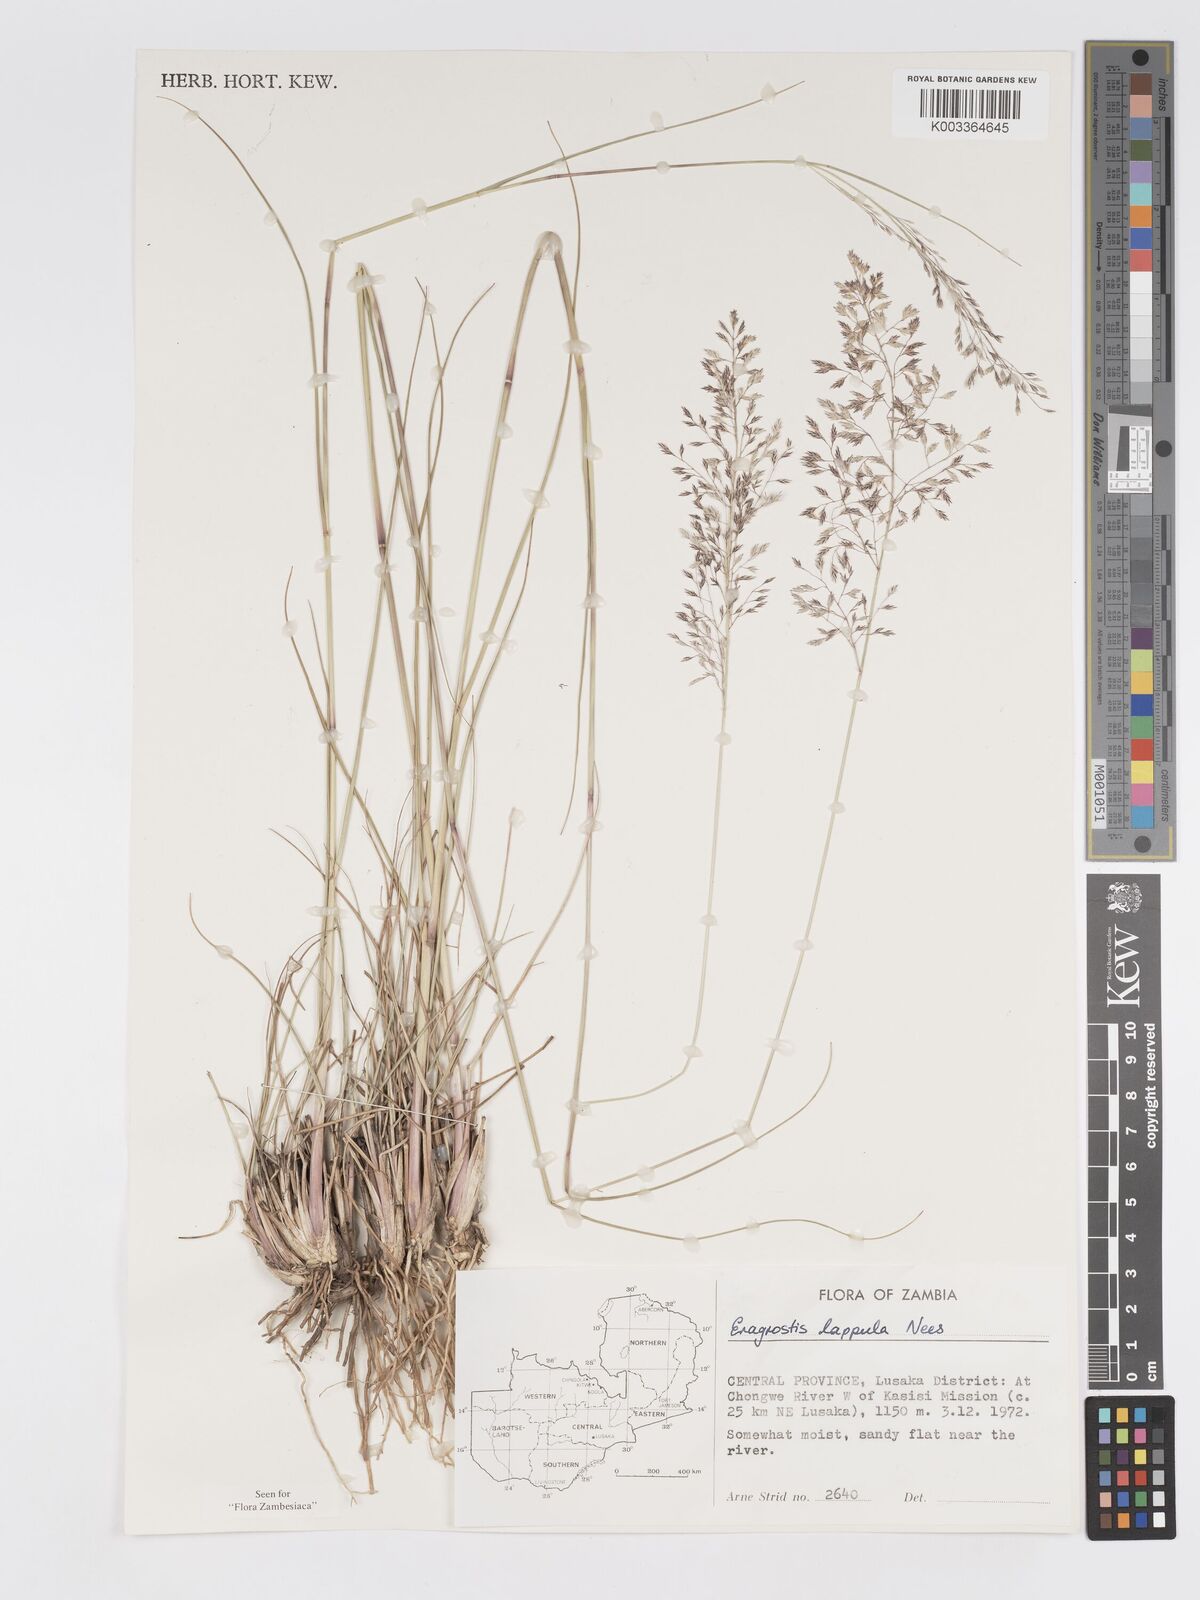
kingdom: Plantae
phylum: Tracheophyta
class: Liliopsida
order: Poales
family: Poaceae
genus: Eragrostis
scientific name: Eragrostis lappula
